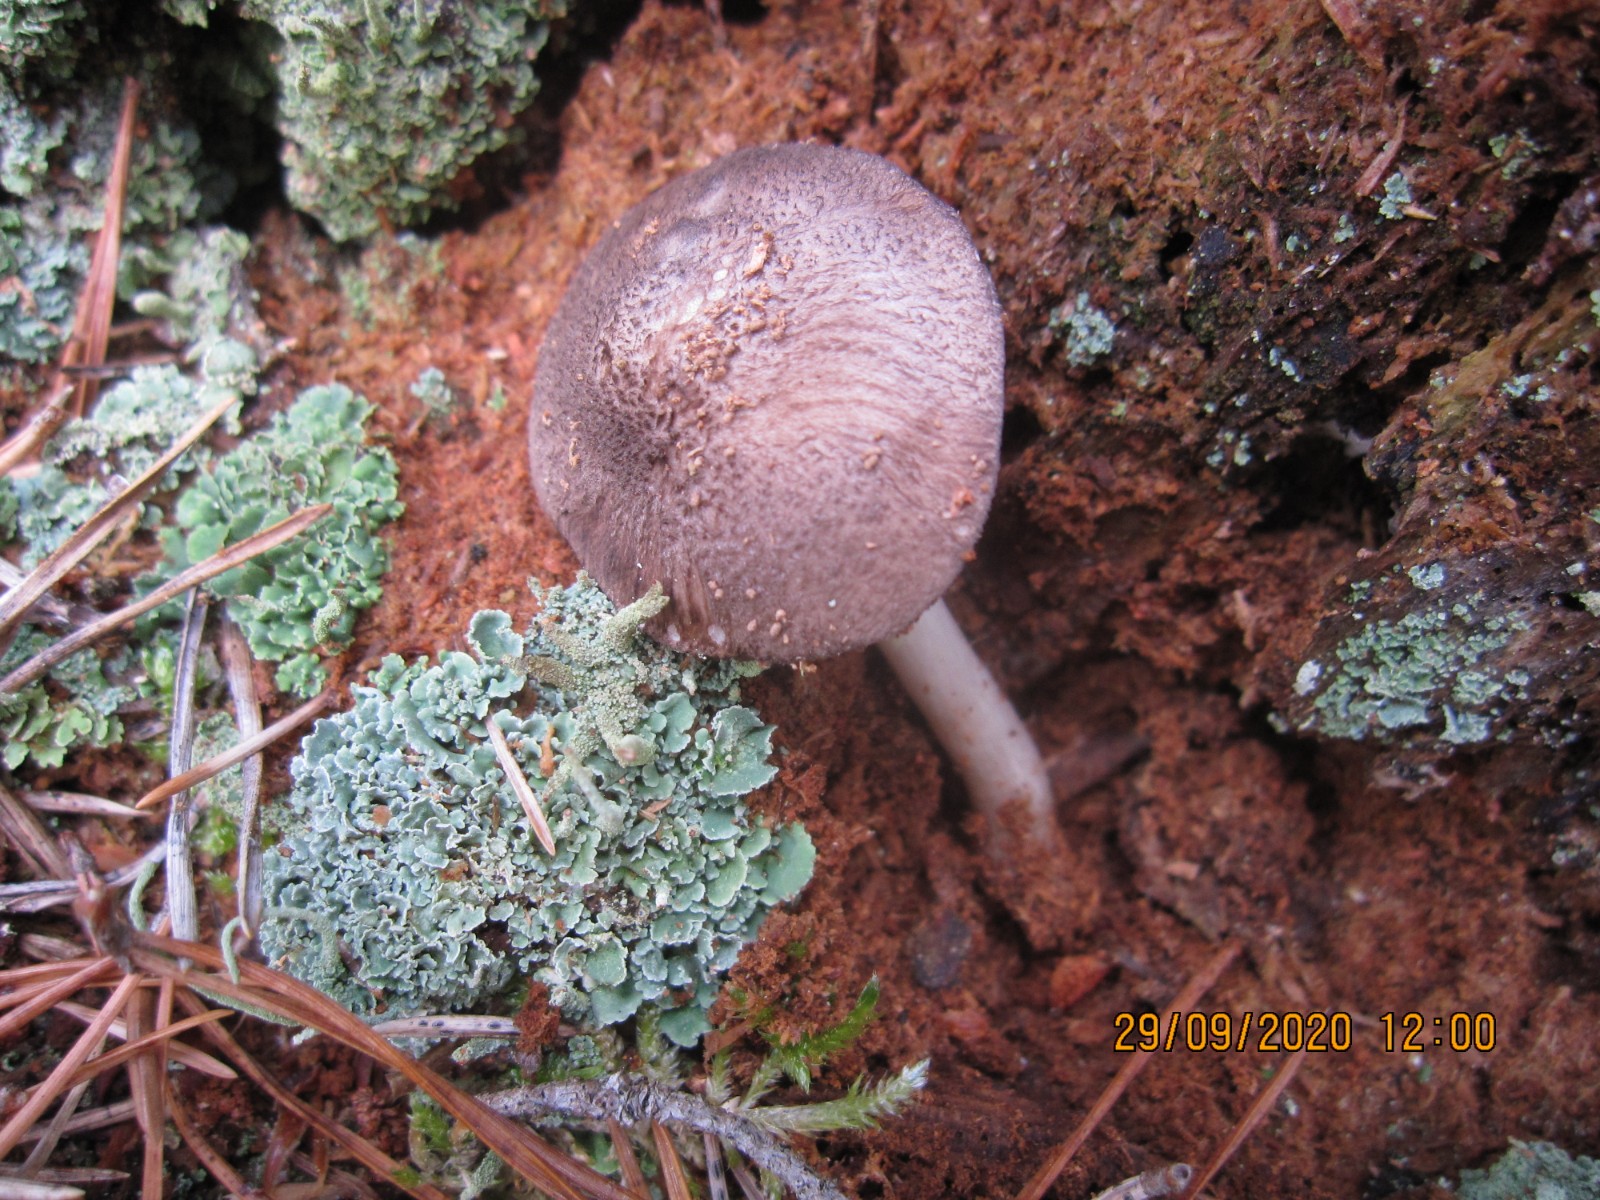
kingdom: Fungi
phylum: Basidiomycota
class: Agaricomycetes
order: Agaricales
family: Pluteaceae
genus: Pluteus
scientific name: Pluteus atromarginatus
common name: sortrandet skærmhat
